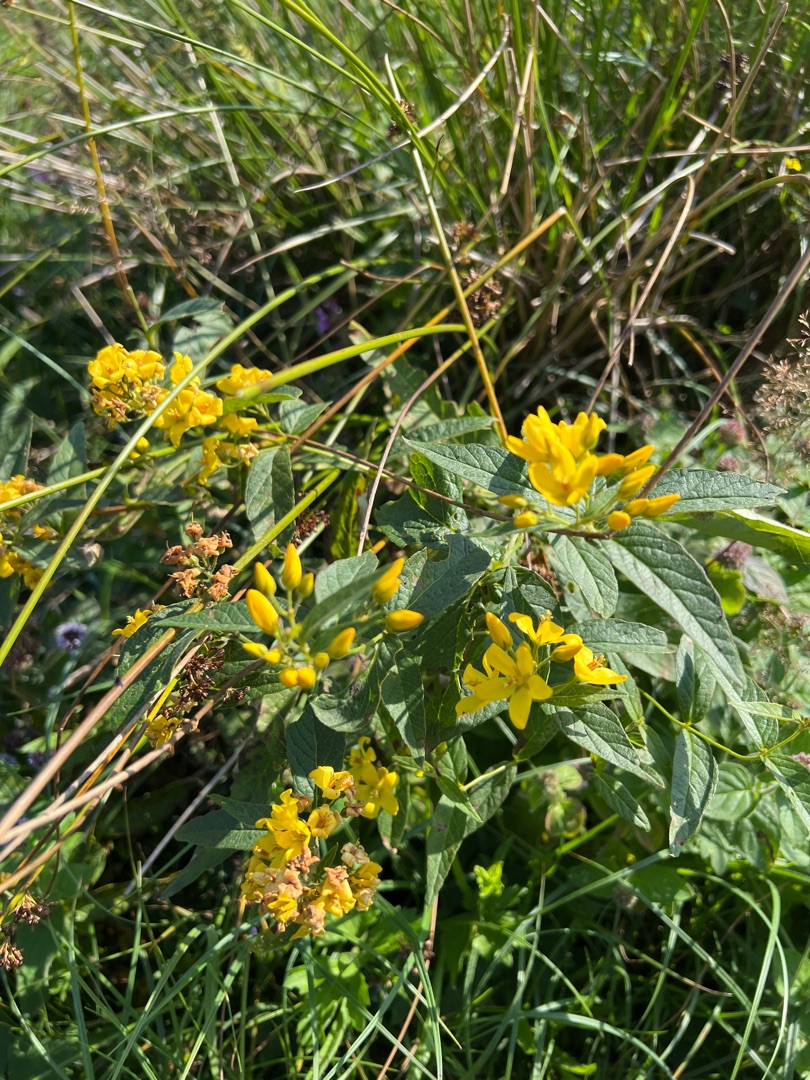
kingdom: Plantae
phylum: Tracheophyta
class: Magnoliopsida
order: Ericales
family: Primulaceae
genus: Lysimachia
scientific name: Lysimachia vulgaris
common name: Almindelig fredløs
